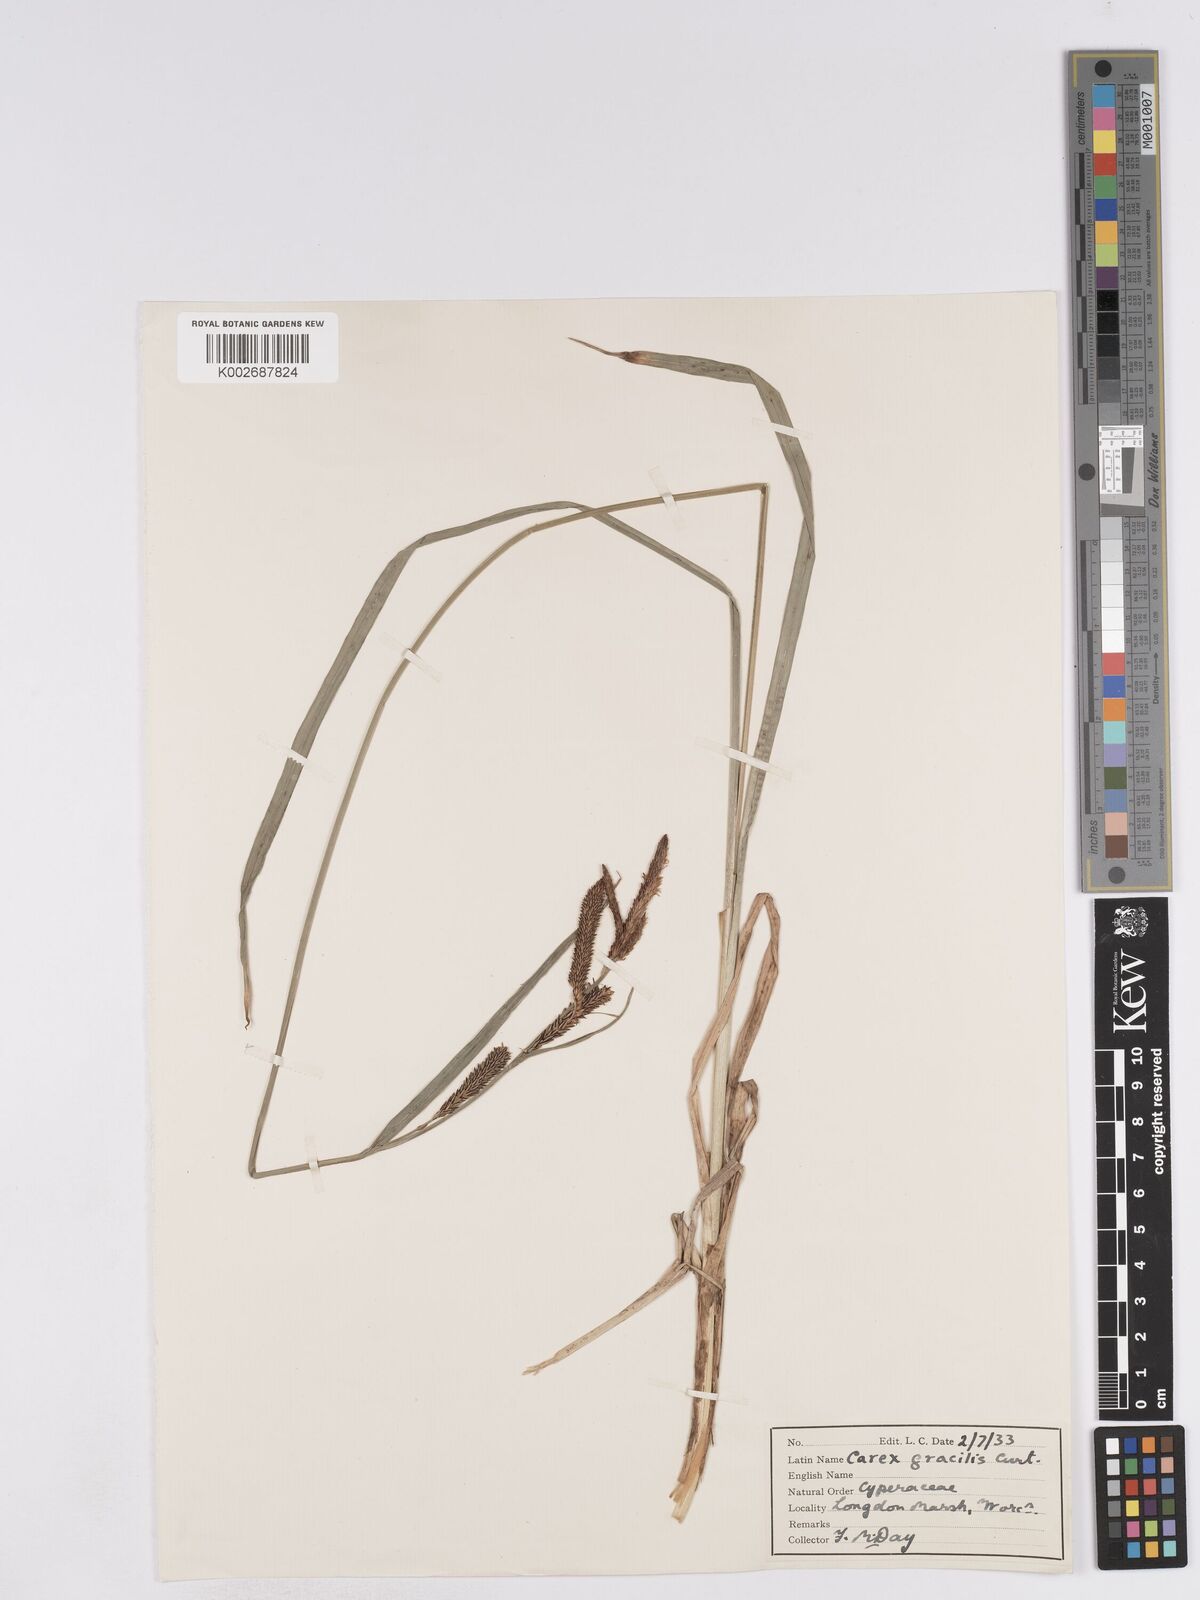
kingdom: Plantae
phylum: Tracheophyta
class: Liliopsida
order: Poales
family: Cyperaceae
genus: Carex
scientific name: Carex acuta
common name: Slender tufted-sedge
